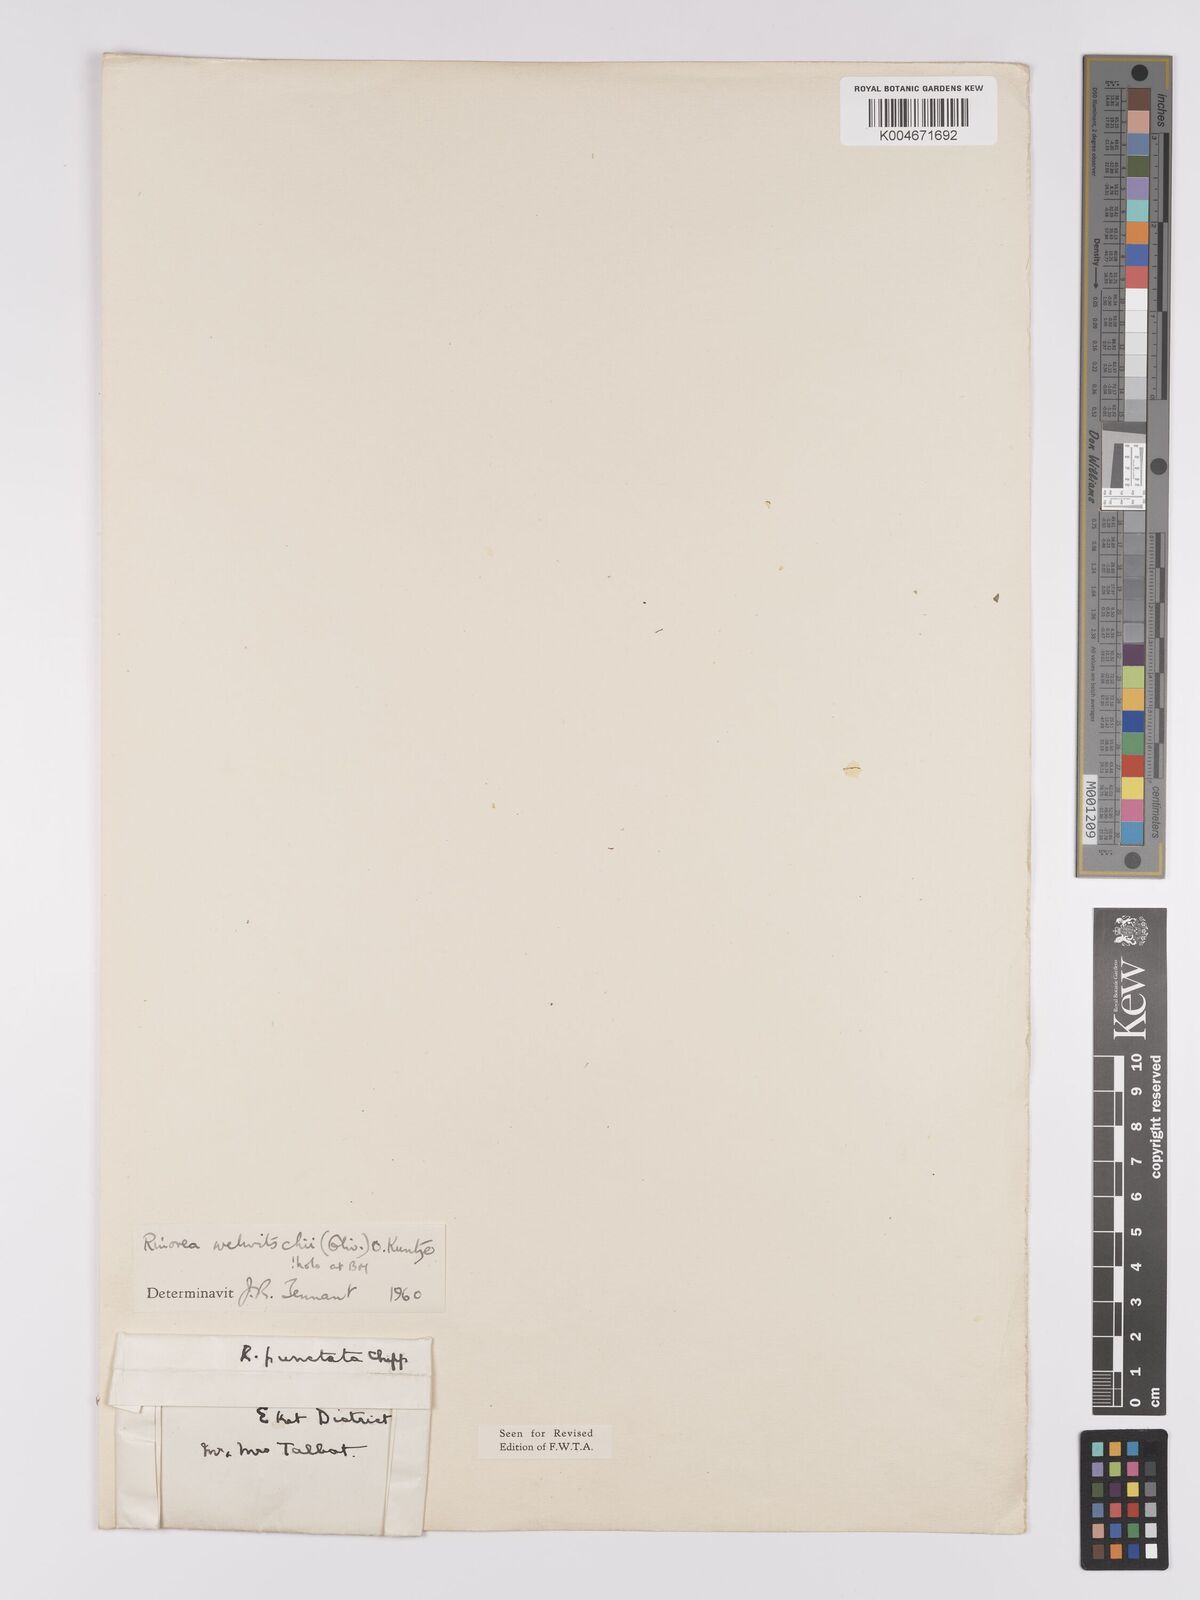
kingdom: Plantae
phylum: Tracheophyta
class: Magnoliopsida
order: Malpighiales
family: Violaceae
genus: Rinorea
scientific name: Rinorea welwitschii
